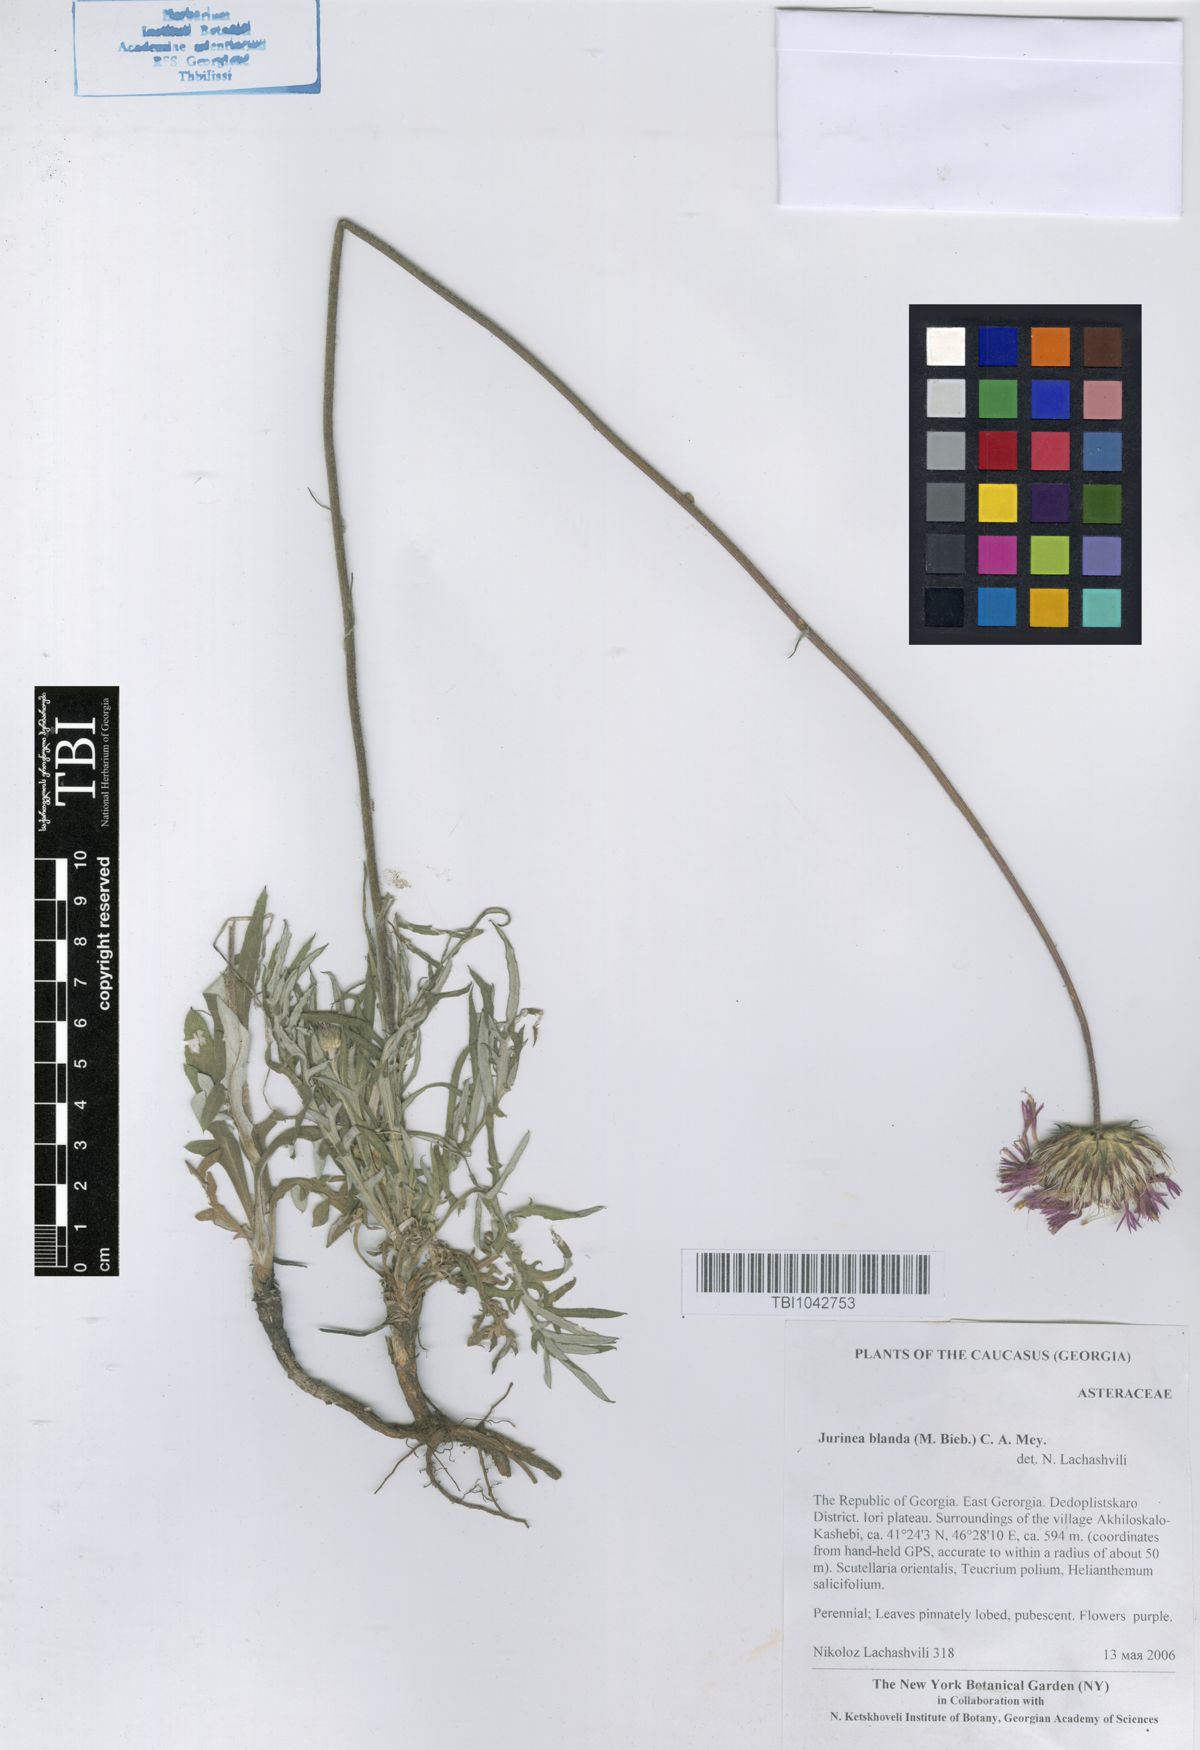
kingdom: Plantae
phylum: Tracheophyta
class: Magnoliopsida
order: Asterales
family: Asteraceae
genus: Jurinea
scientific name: Jurinea blanda
